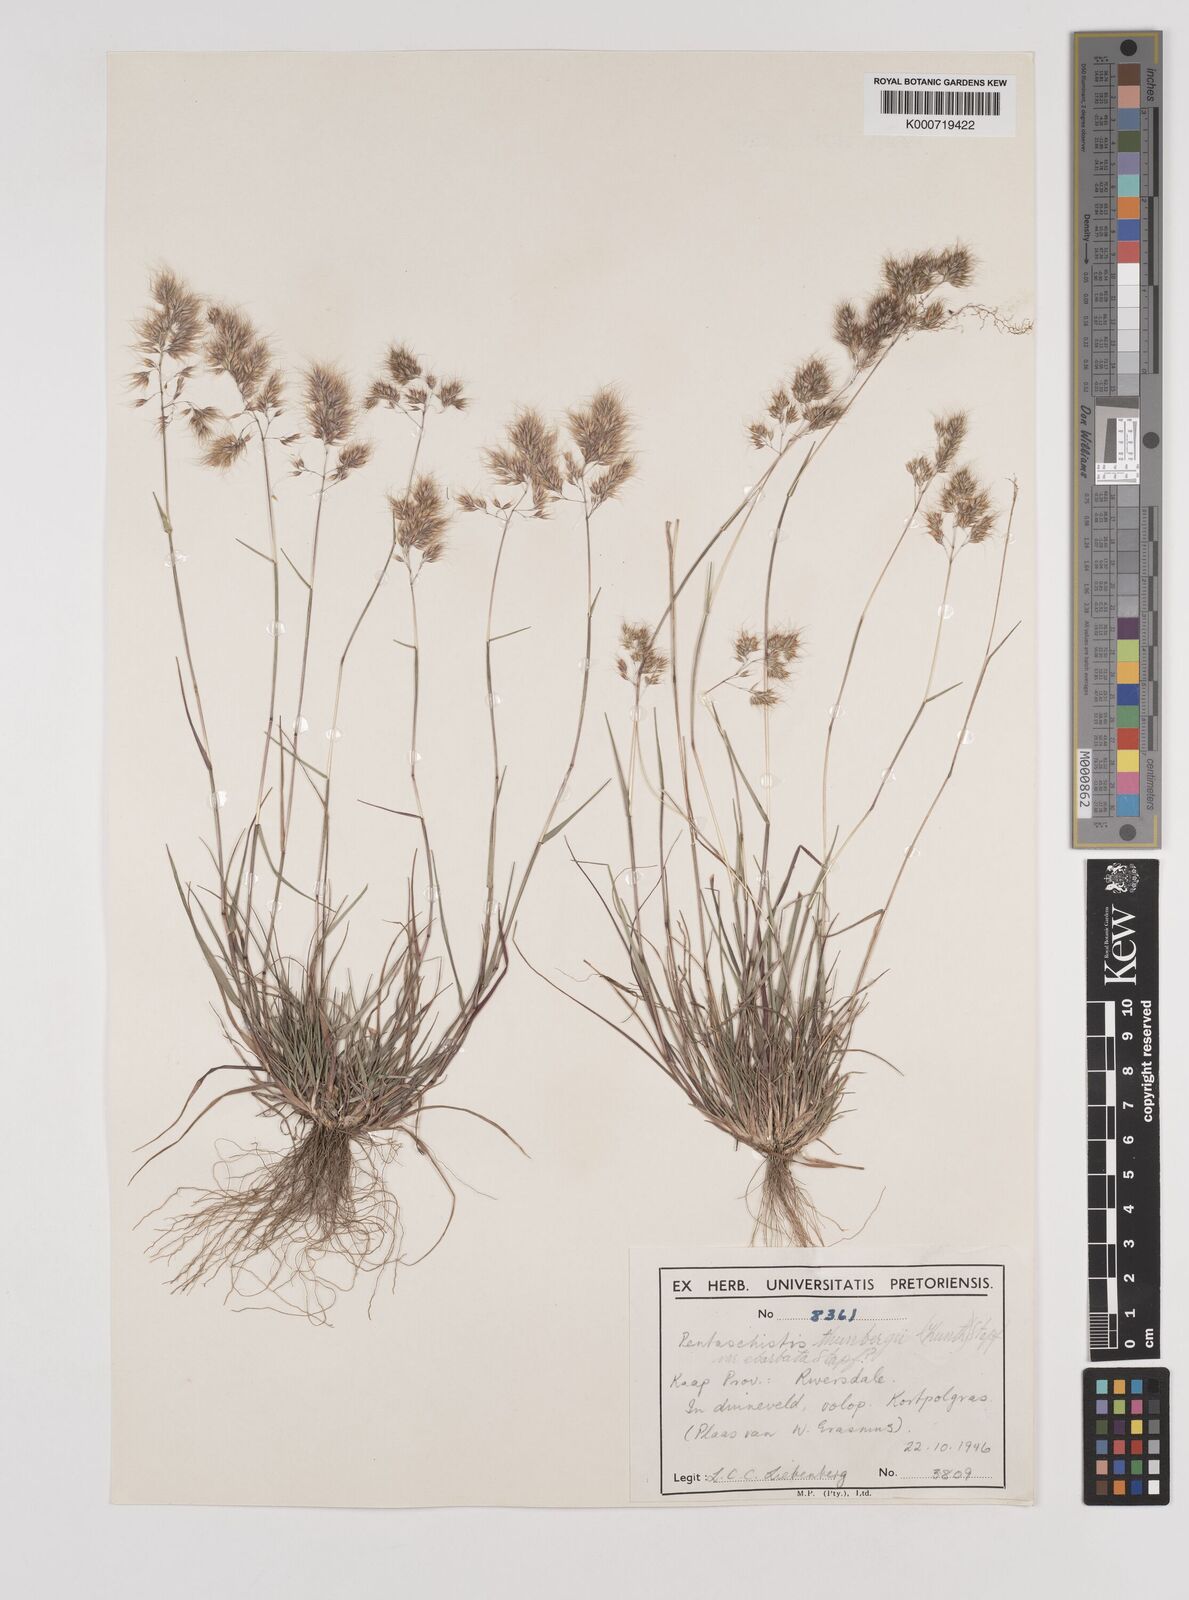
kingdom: Plantae
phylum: Tracheophyta
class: Liliopsida
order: Poales
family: Poaceae
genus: Pentameris
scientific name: Pentameris triseta
